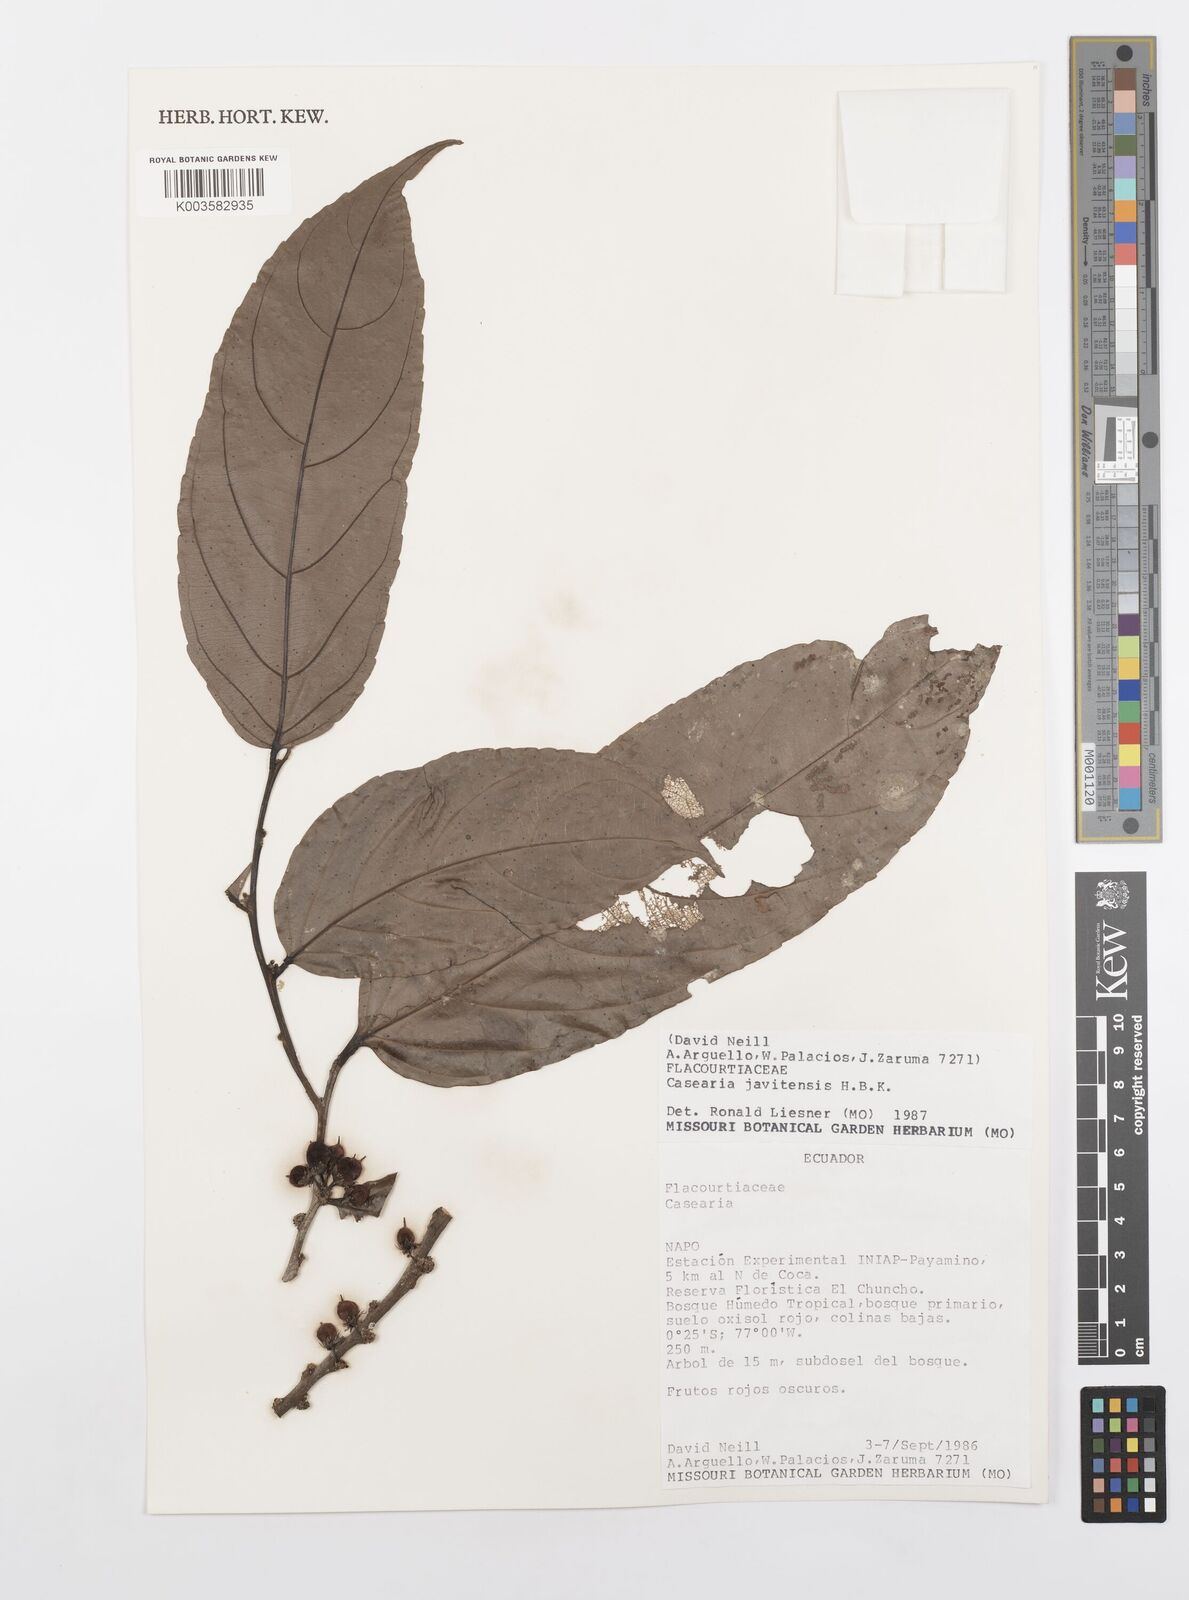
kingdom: Plantae
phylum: Tracheophyta
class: Magnoliopsida
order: Malpighiales
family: Salicaceae
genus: Piparea
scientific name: Piparea multiflora
